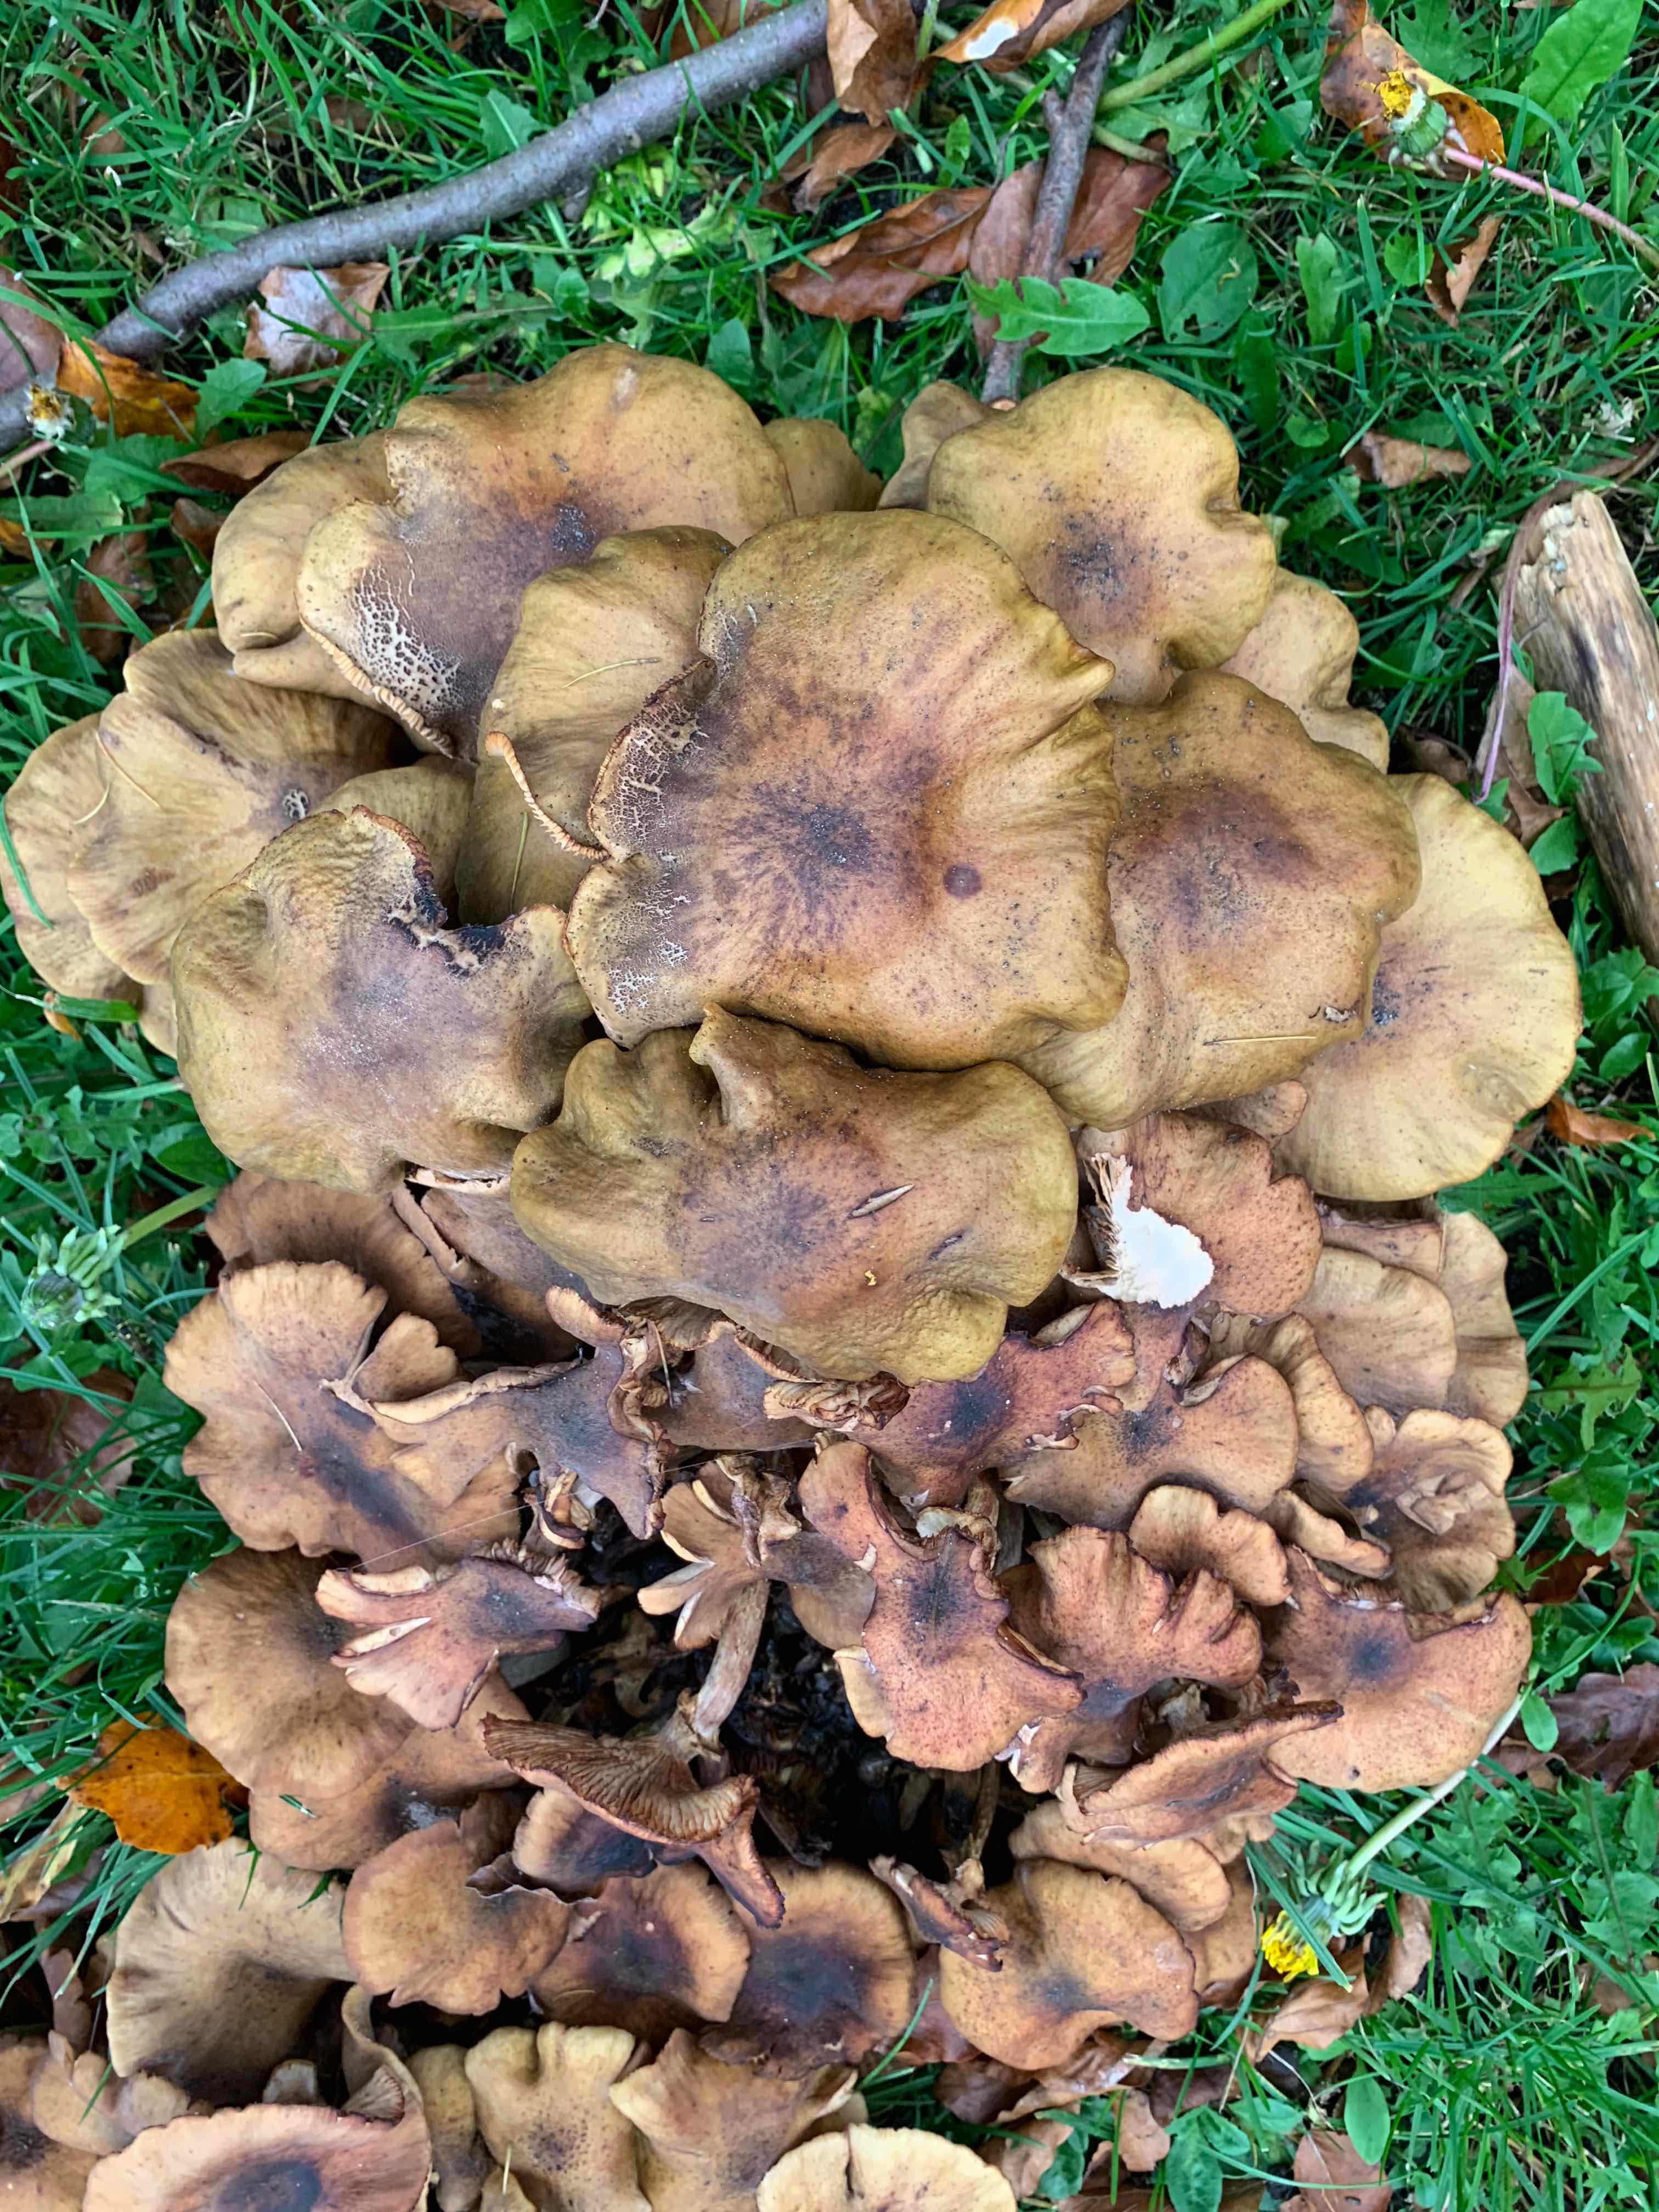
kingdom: Fungi
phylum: Basidiomycota
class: Agaricomycetes
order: Agaricales
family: Physalacriaceae
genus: Armillaria
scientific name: Armillaria mellea
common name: ægte honningsvamp
